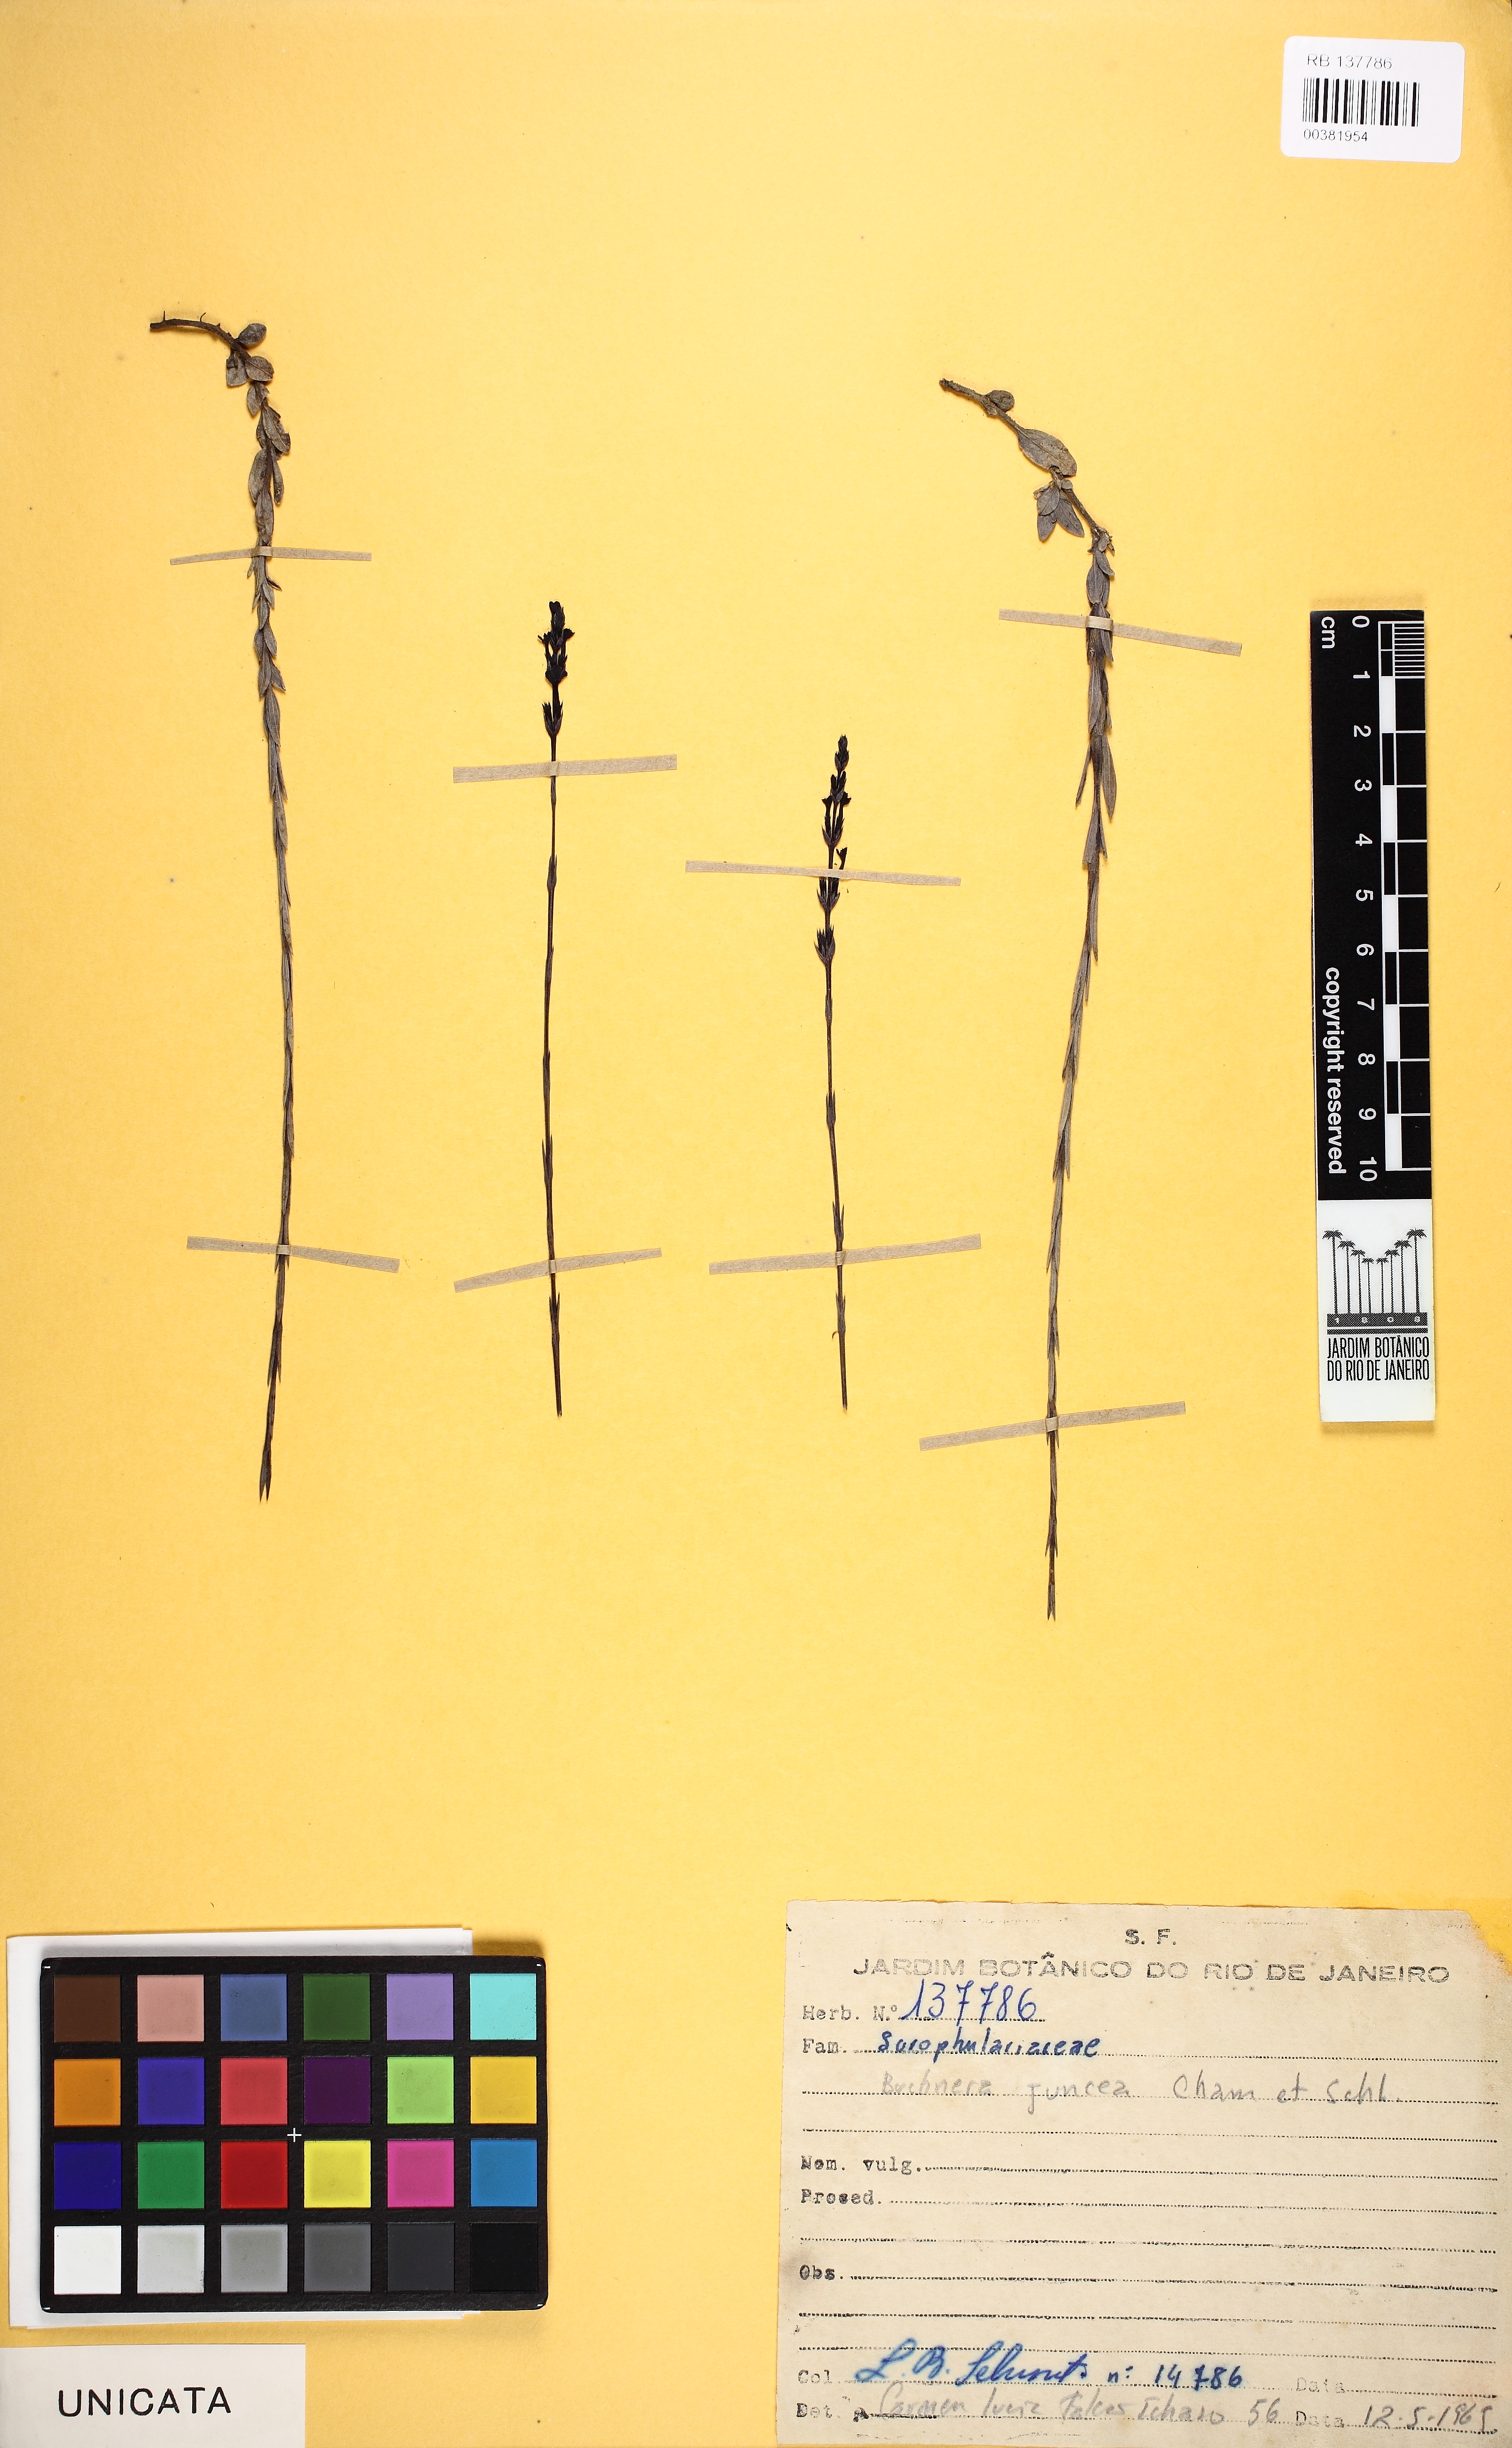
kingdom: Plantae
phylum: Tracheophyta
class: Magnoliopsida
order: Lamiales
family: Orobanchaceae
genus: Buchnera
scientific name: Buchnera juncea
